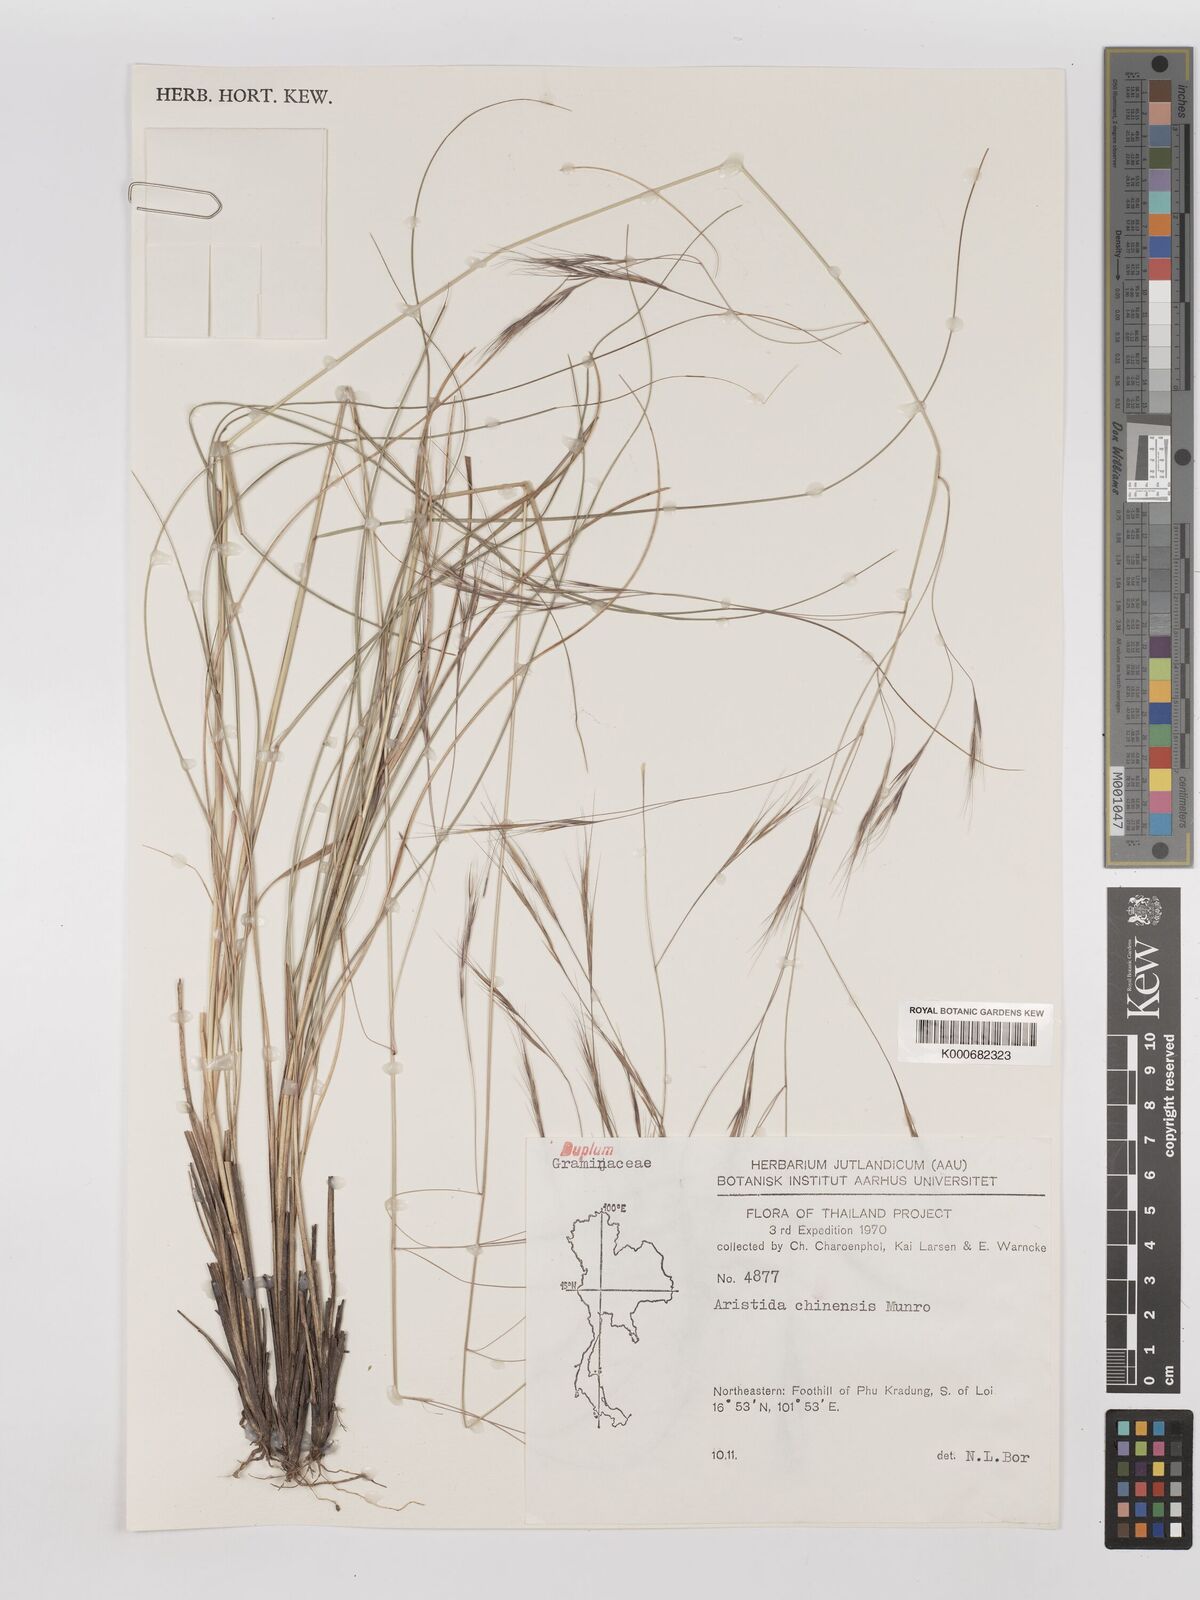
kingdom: Plantae
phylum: Tracheophyta
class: Liliopsida
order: Poales
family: Poaceae
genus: Aristida
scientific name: Aristida chinensis
